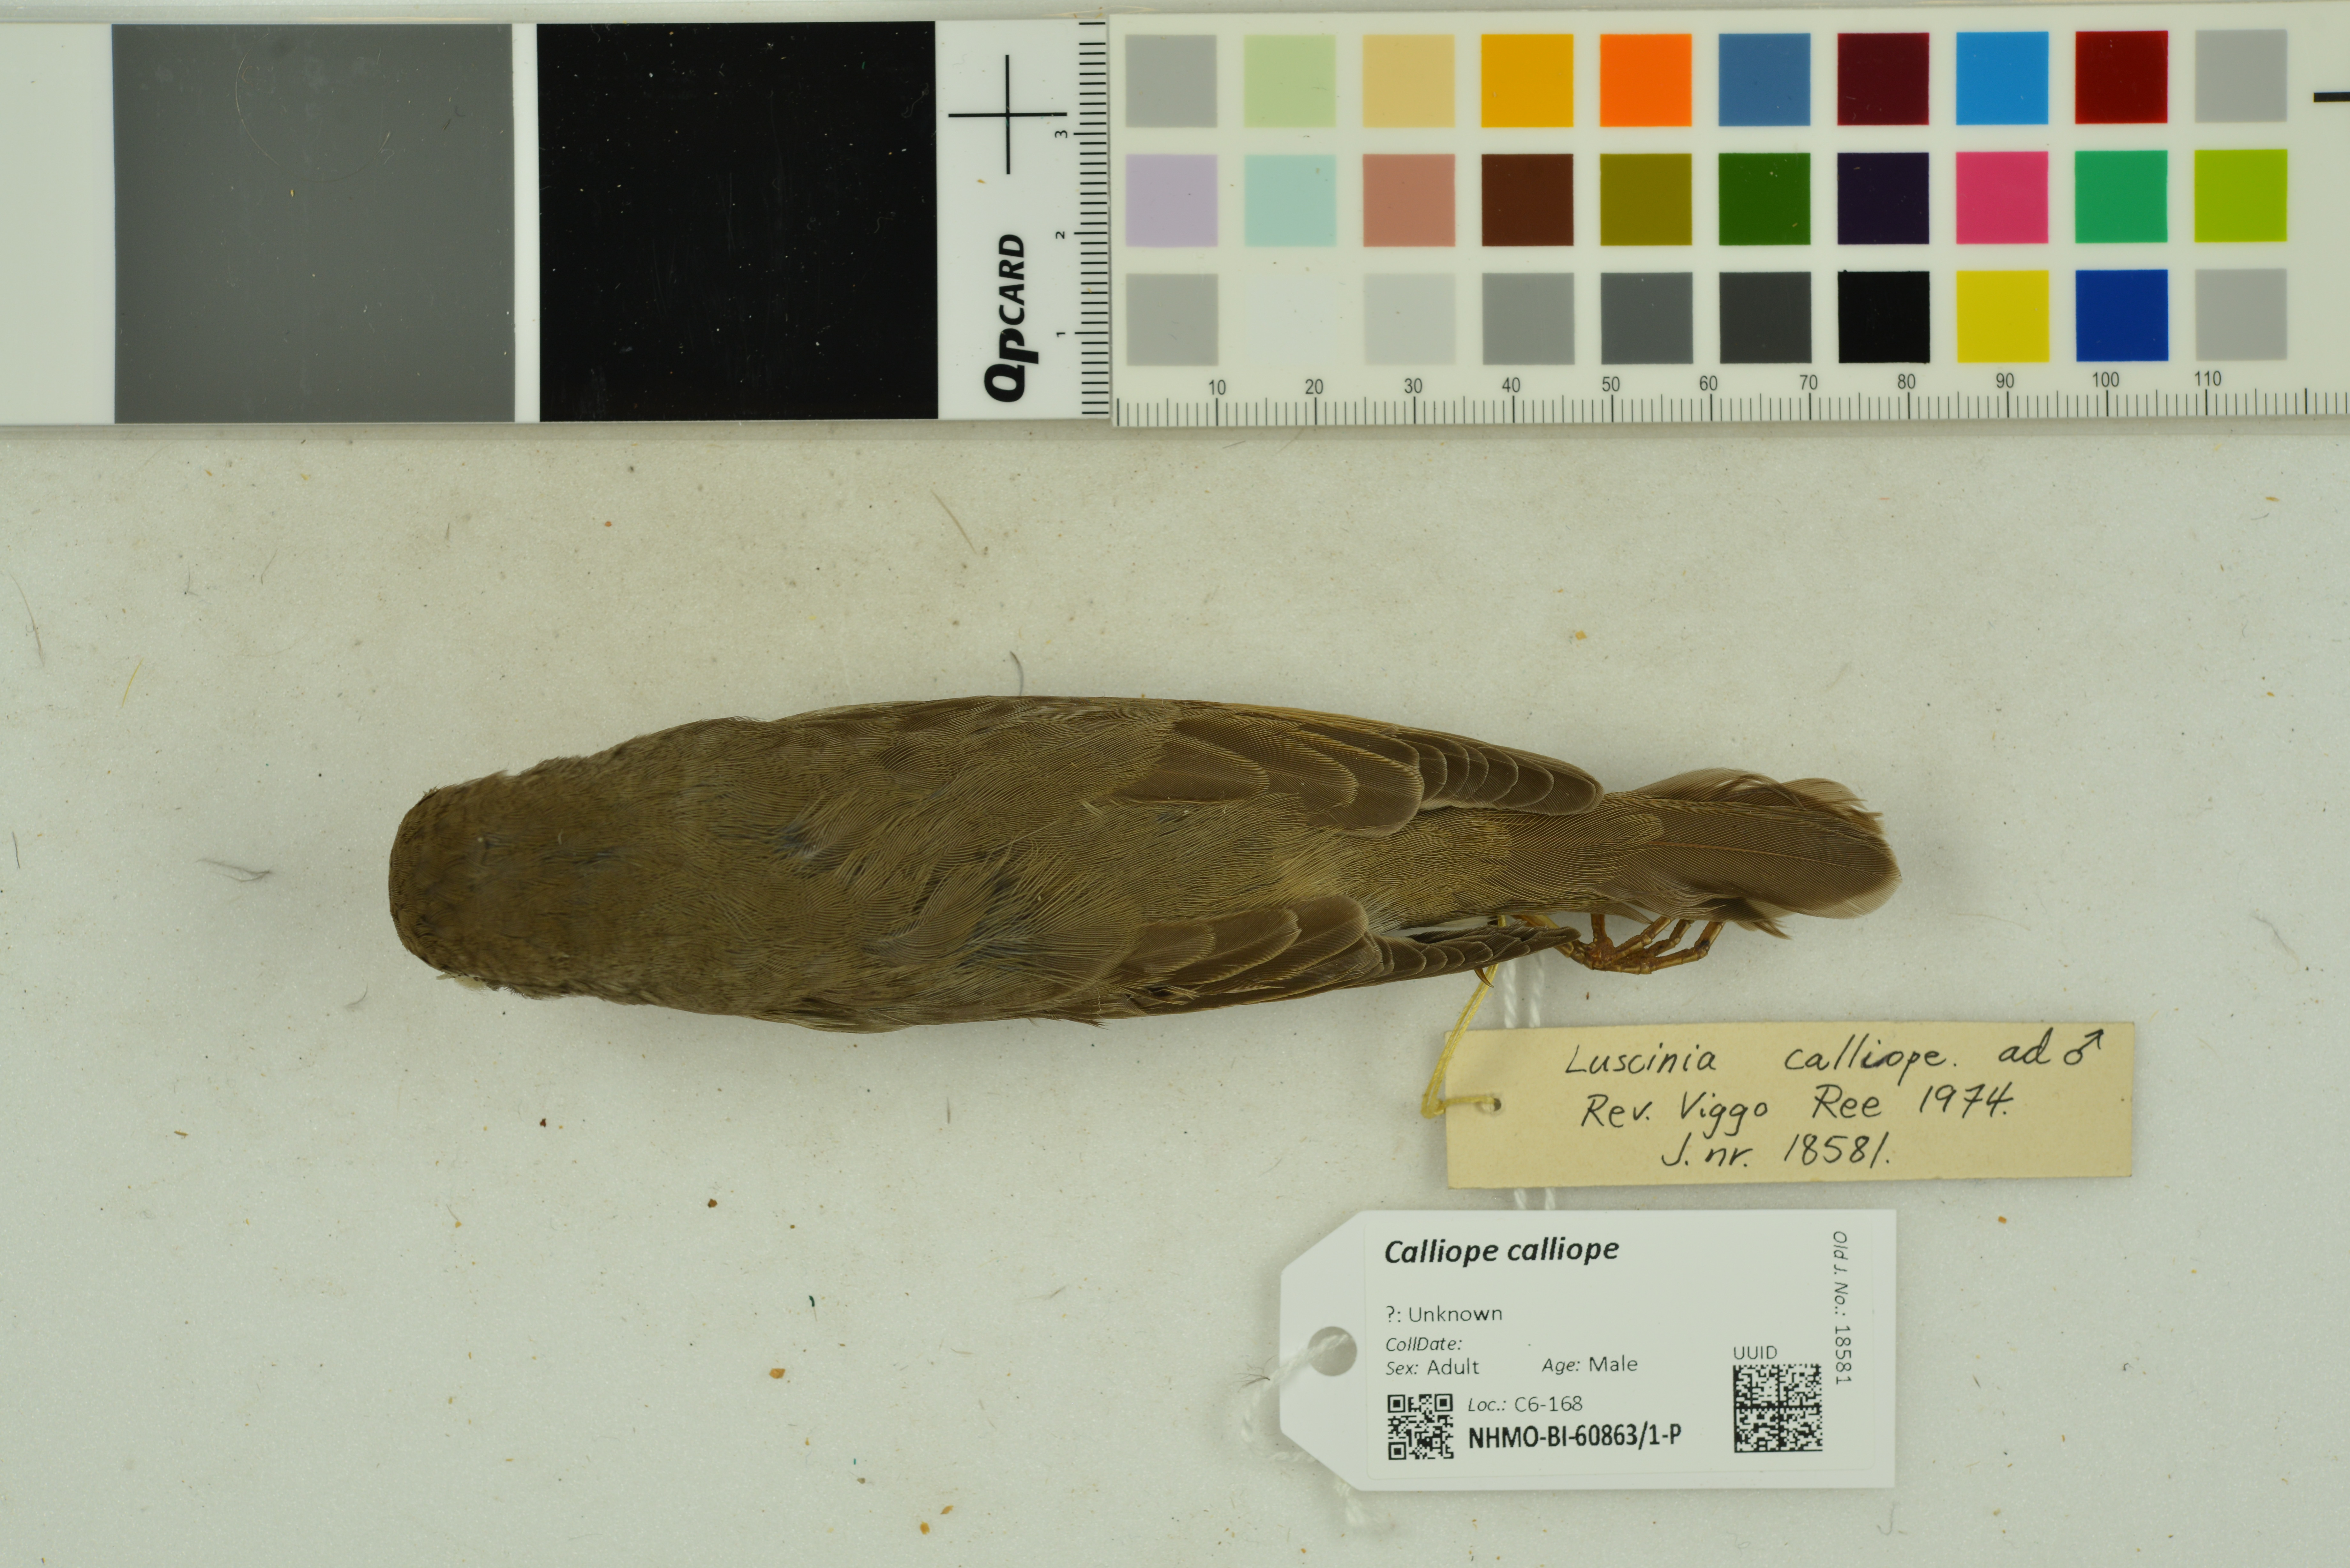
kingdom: Animalia
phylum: Chordata
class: Aves
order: Passeriformes
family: Muscicapidae
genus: Luscinia
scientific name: Luscinia calliope
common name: Siberian rubythroat
